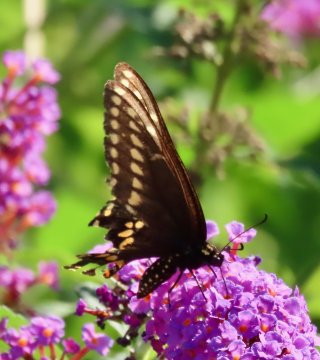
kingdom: Animalia
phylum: Arthropoda
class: Insecta
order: Lepidoptera
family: Papilionidae
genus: Papilio
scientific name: Papilio polyxenes
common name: Black Swallowtail
